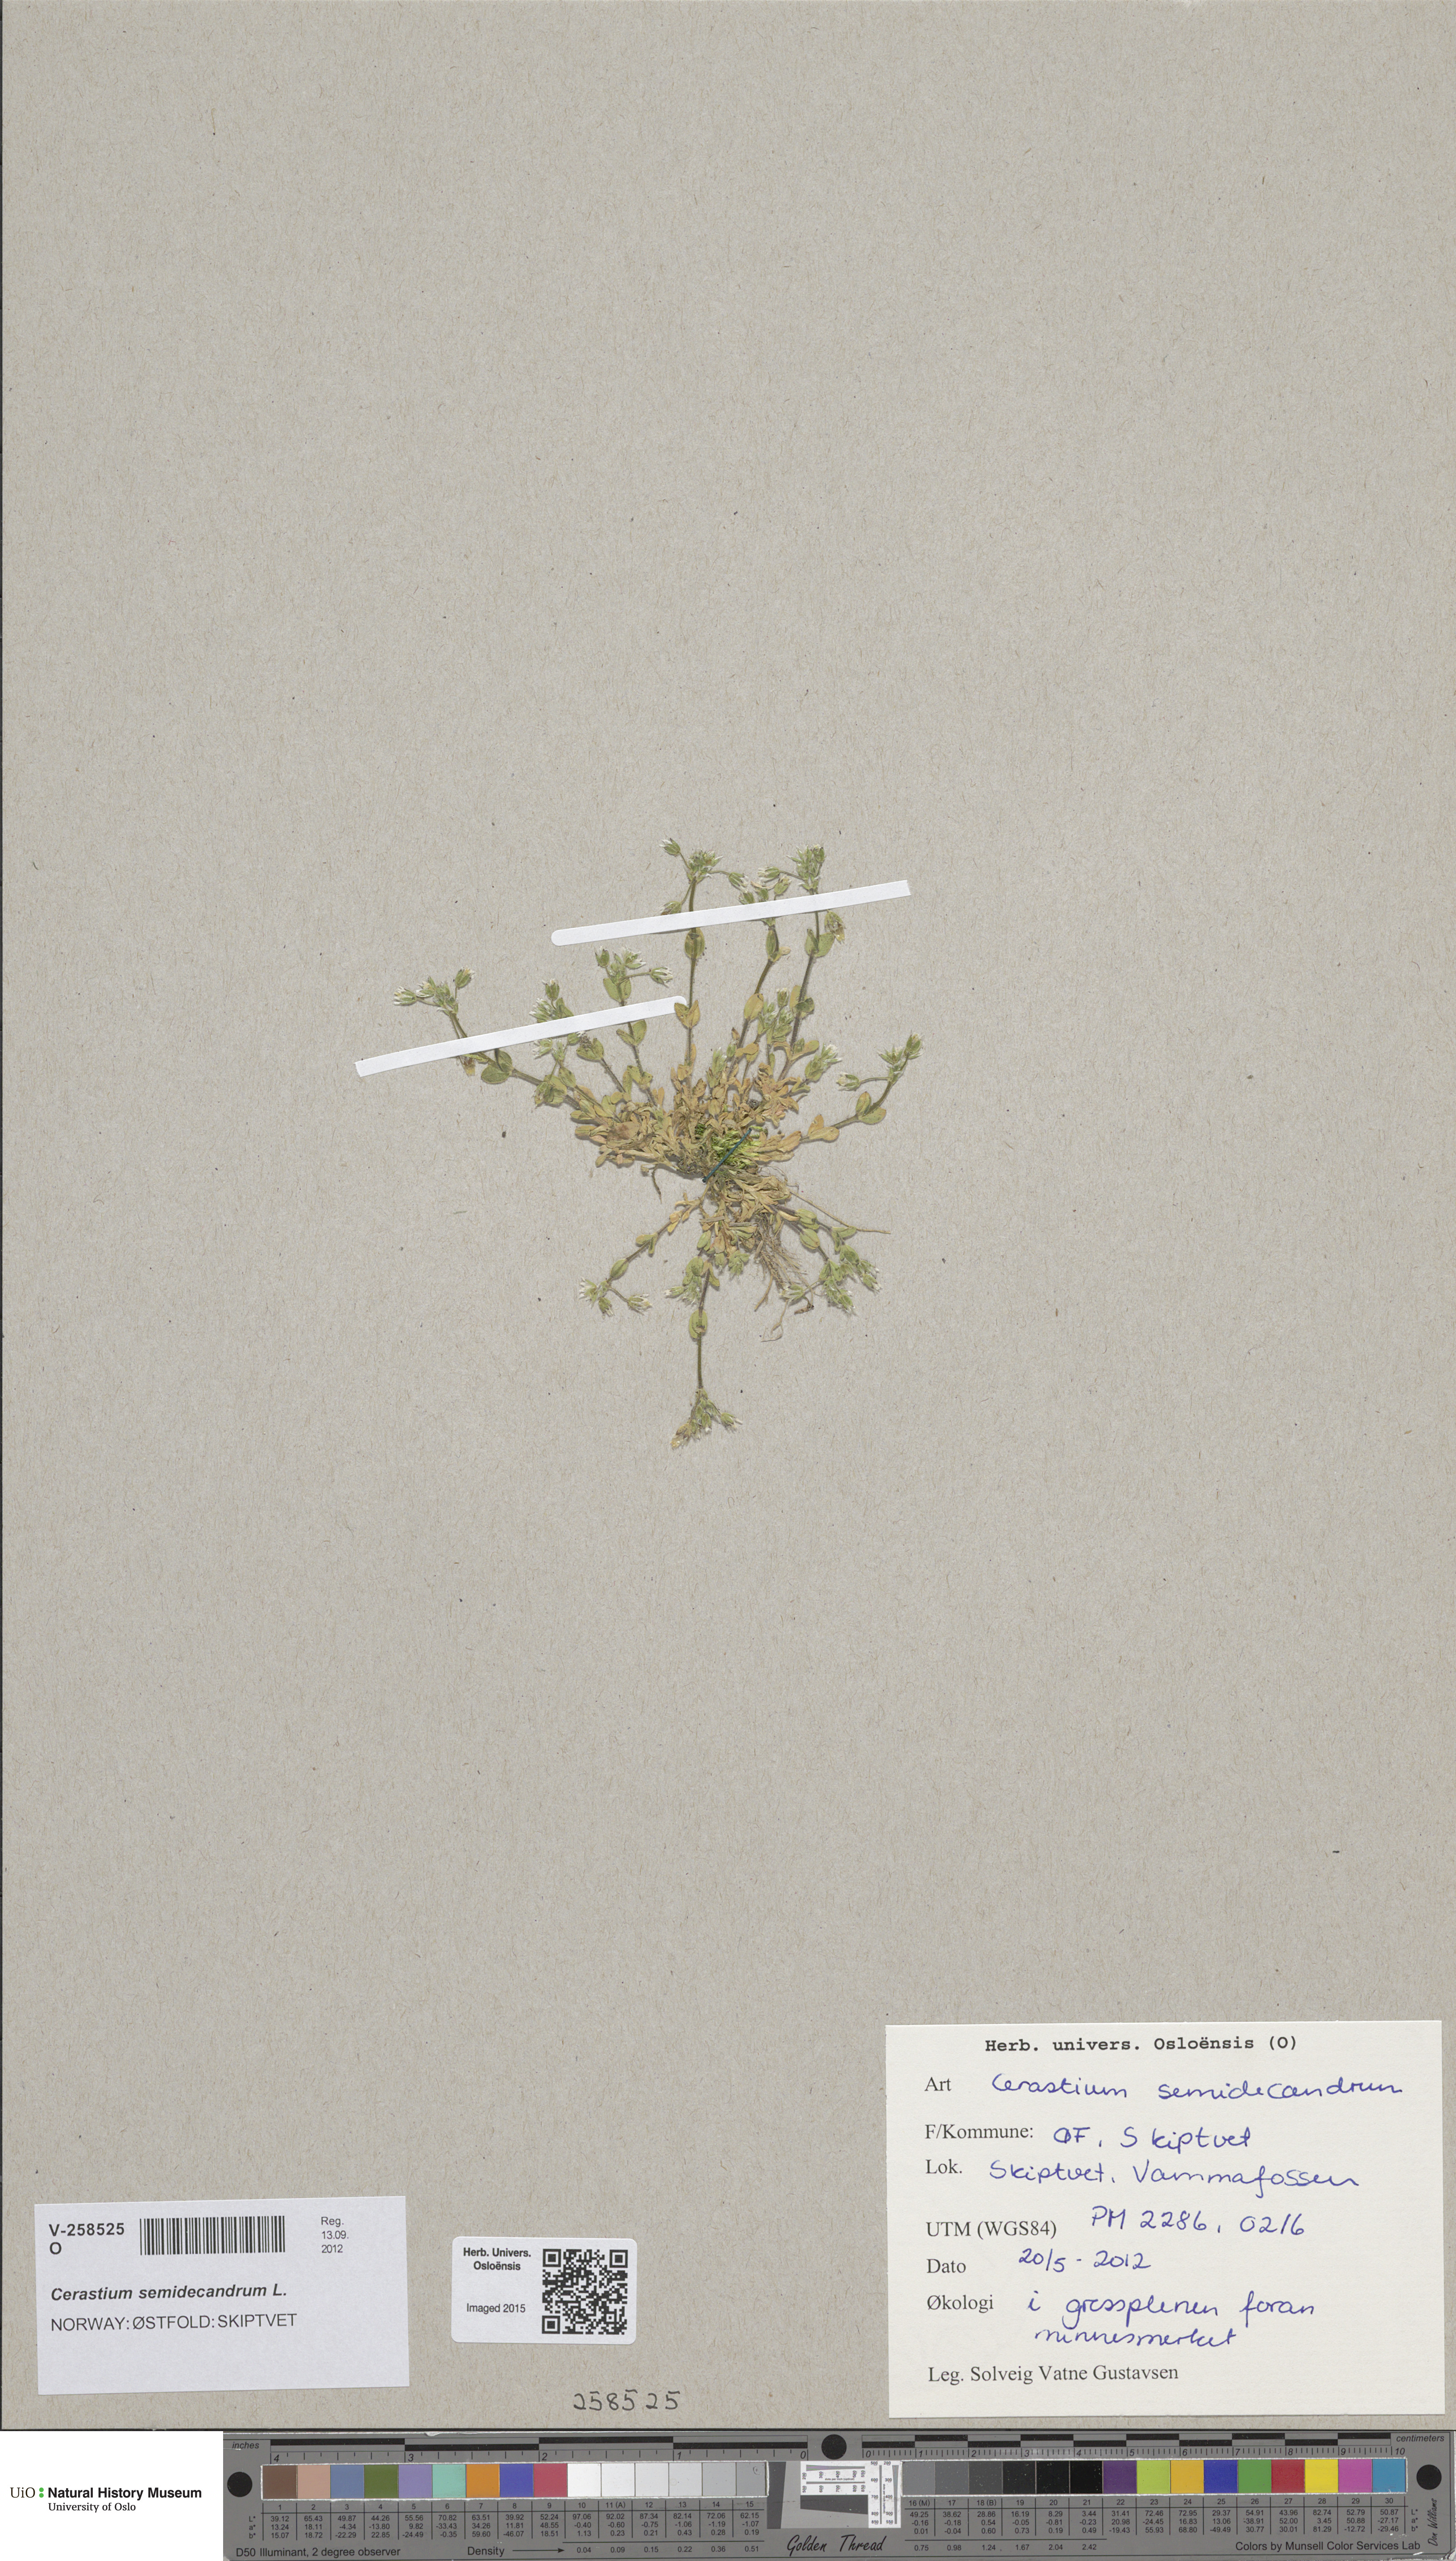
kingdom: Plantae
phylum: Tracheophyta
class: Magnoliopsida
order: Caryophyllales
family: Caryophyllaceae
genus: Cerastium
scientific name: Cerastium semidecandrum
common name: Little mouse-ear
